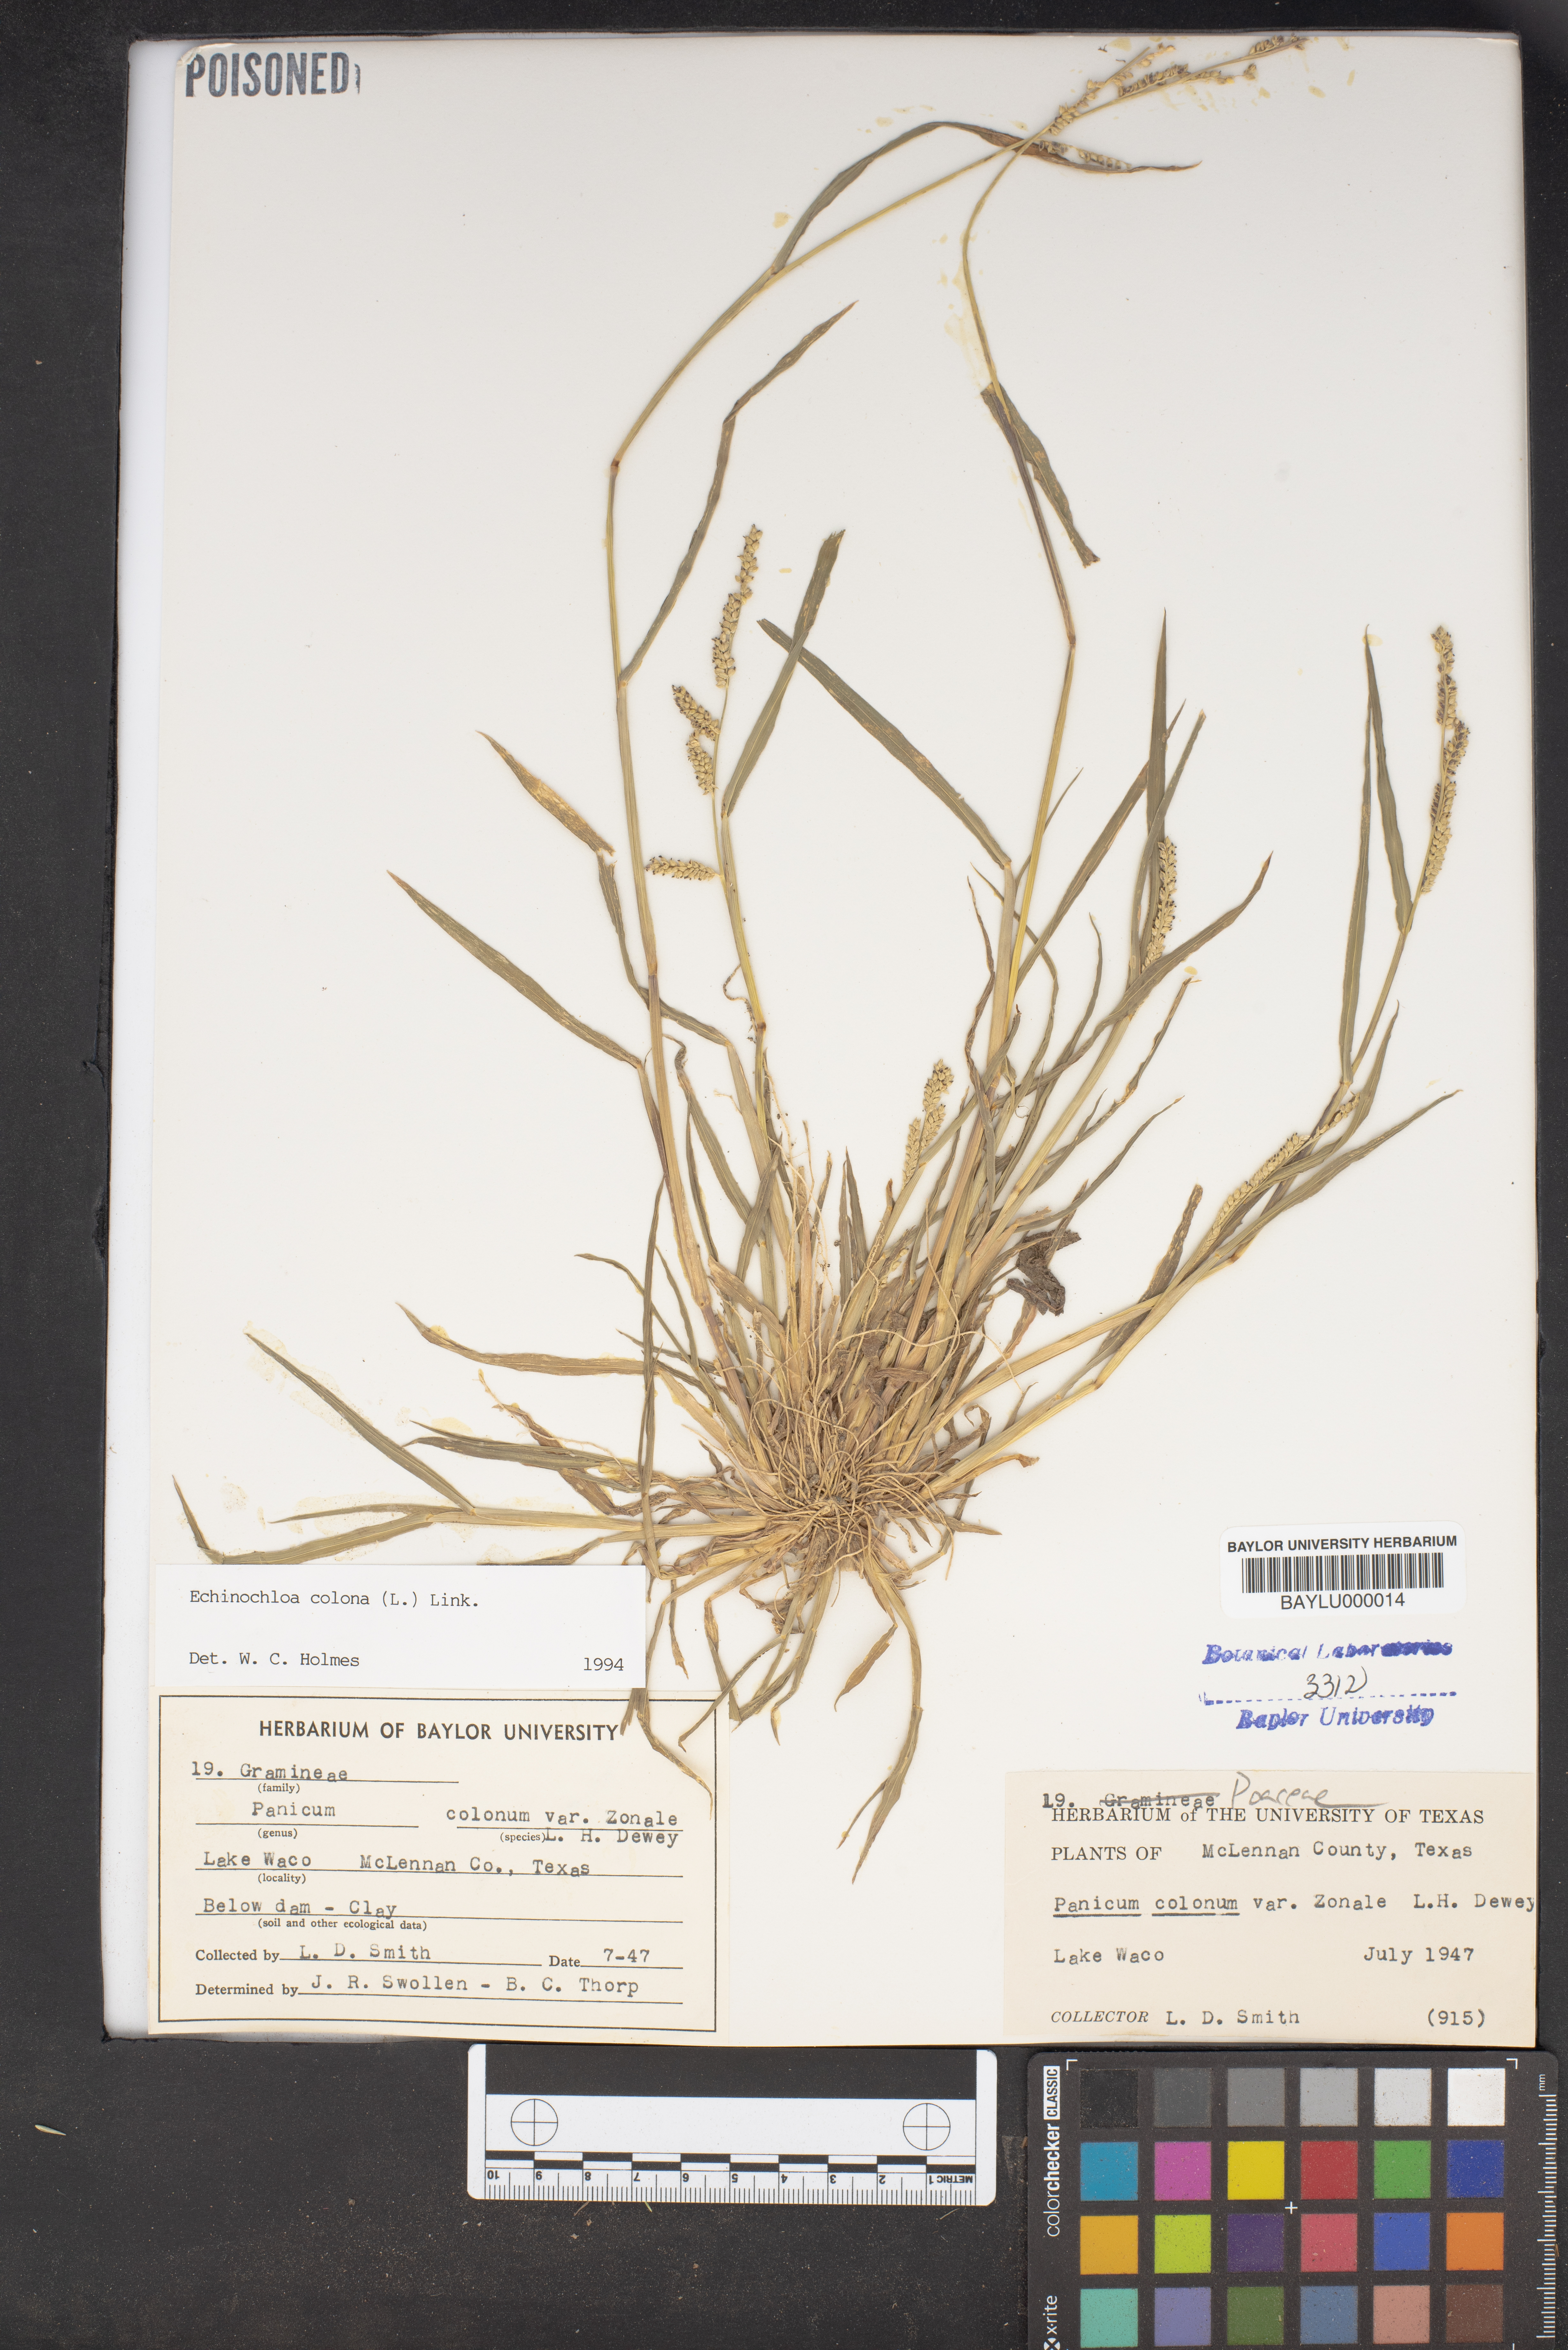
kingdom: Plantae
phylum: Tracheophyta
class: Liliopsida
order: Poales
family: Poaceae
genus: Echinochloa
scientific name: Echinochloa colonum
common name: Jungle rice
